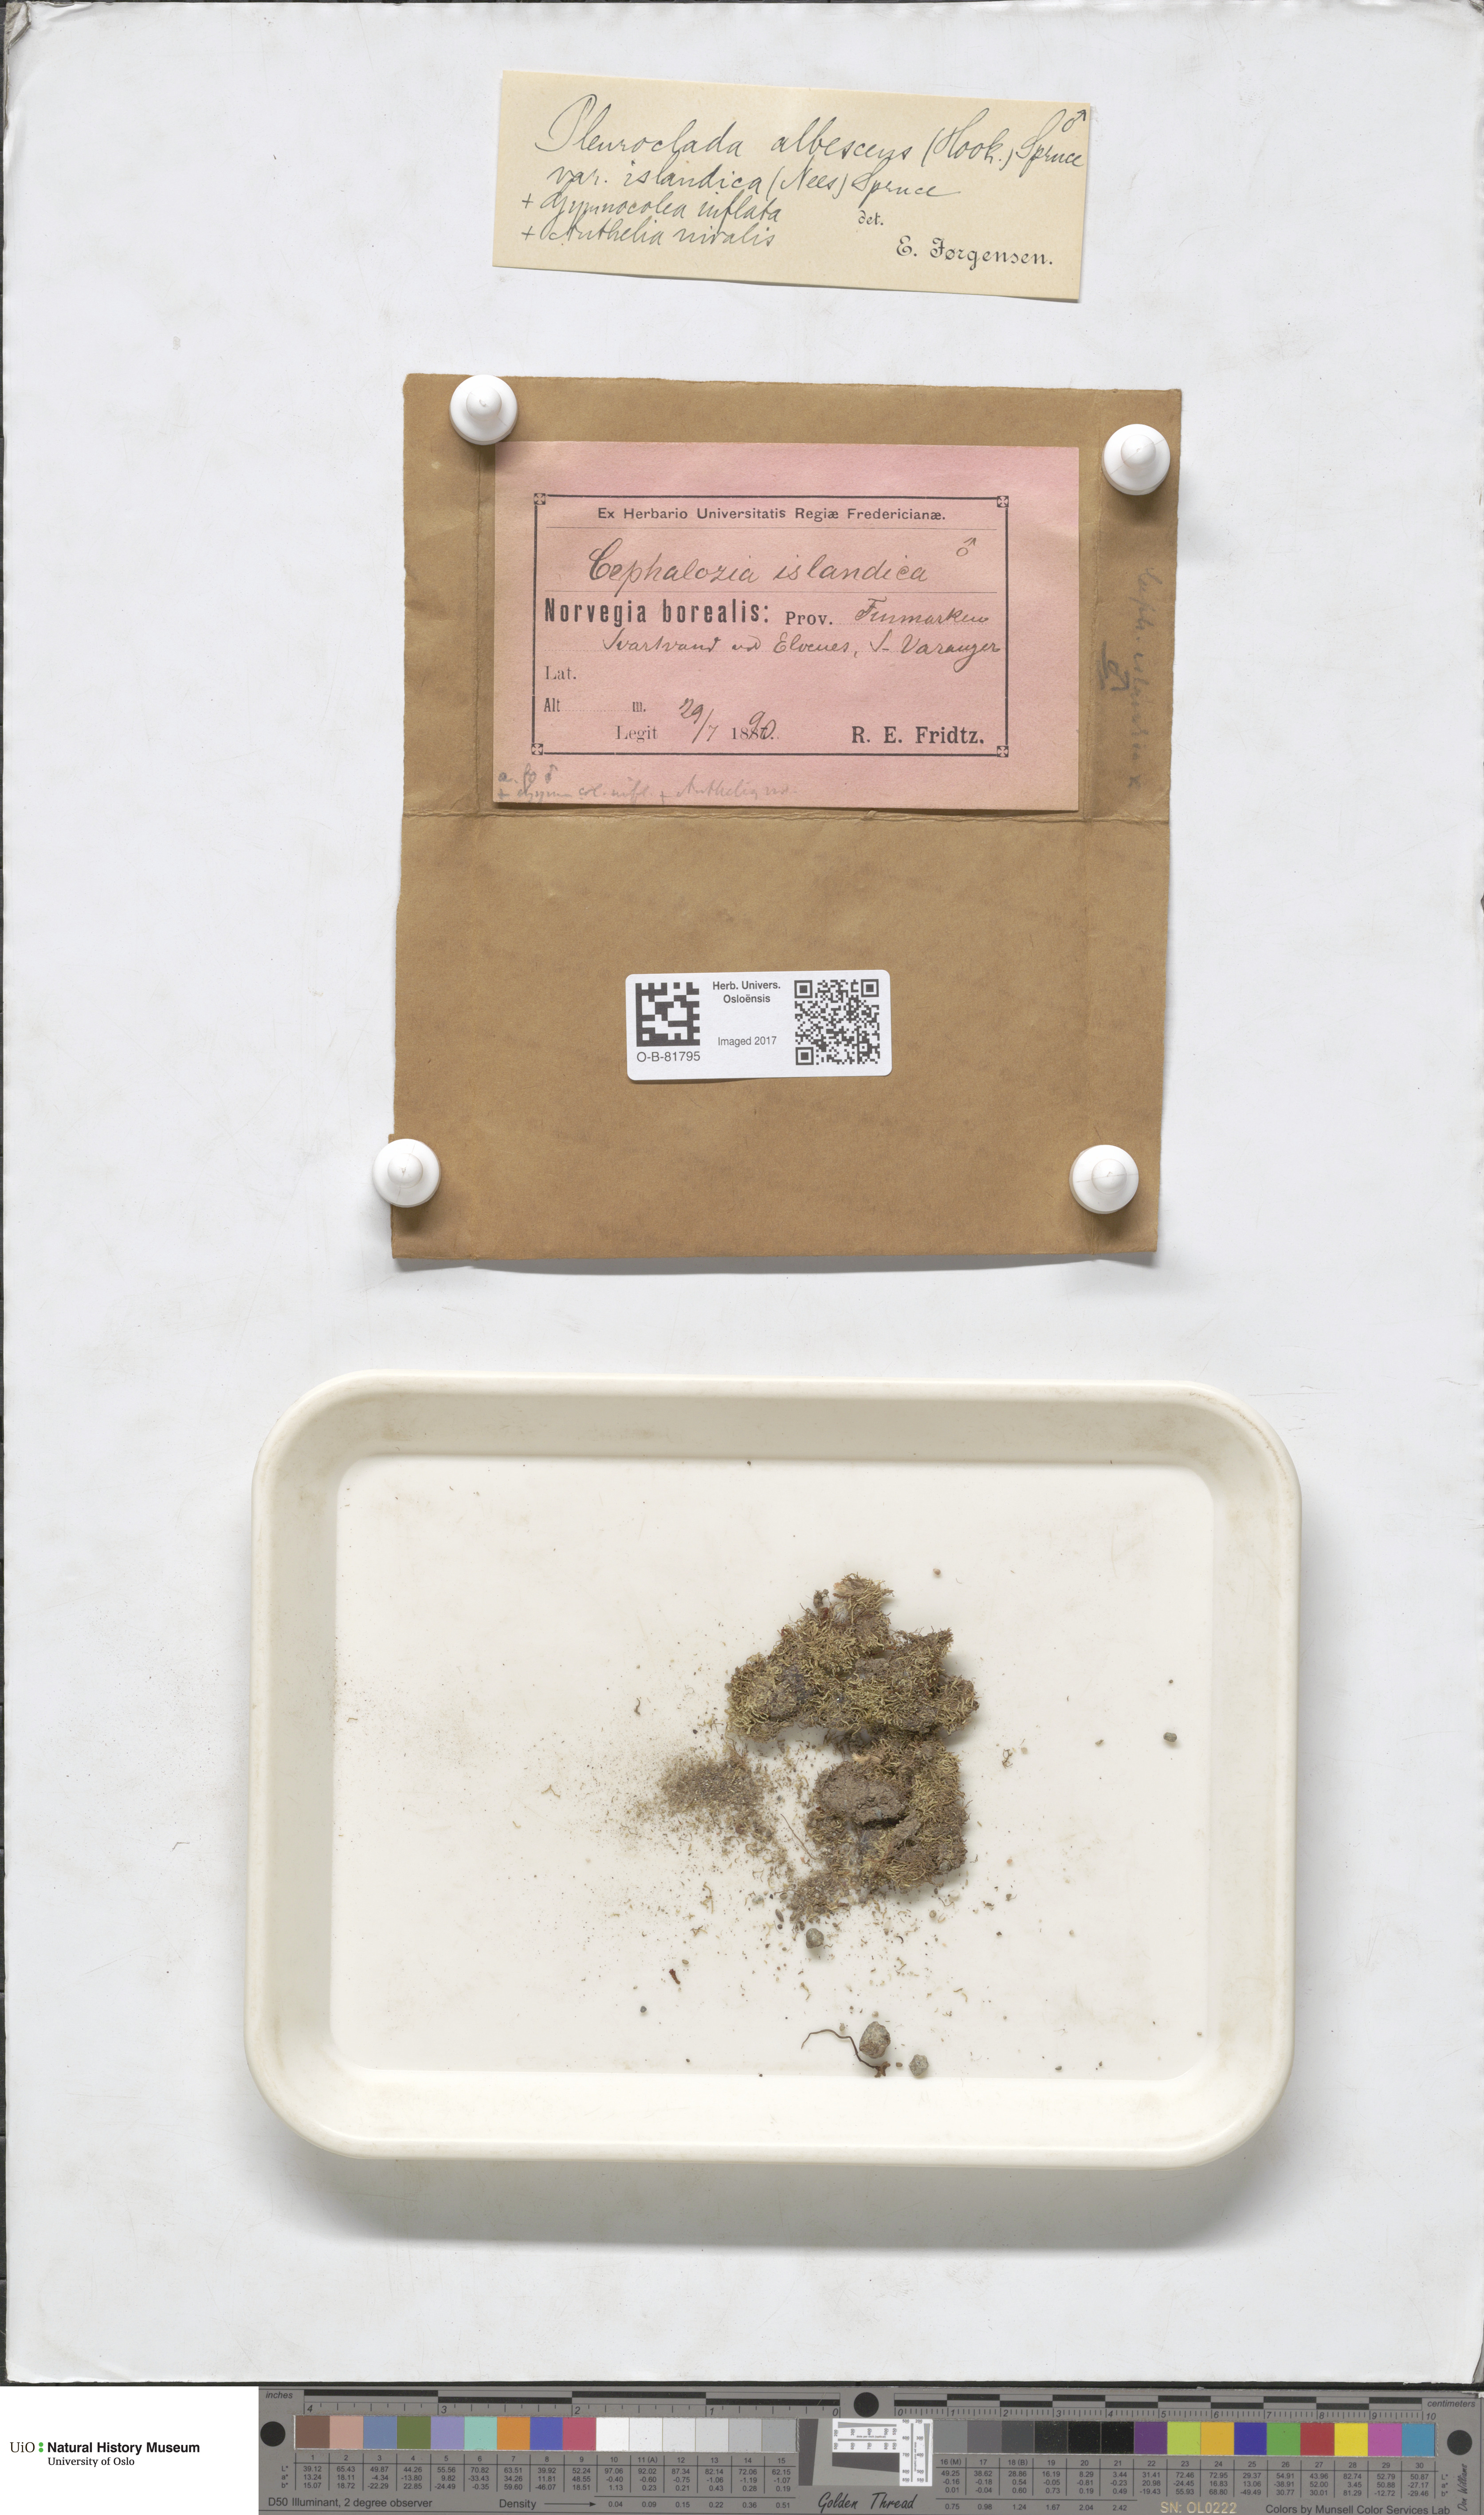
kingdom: Plantae
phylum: Marchantiophyta
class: Jungermanniopsida
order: Jungermanniales
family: Cephaloziaceae
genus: Fuscocephaloziopsis
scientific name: Fuscocephaloziopsis albescens
